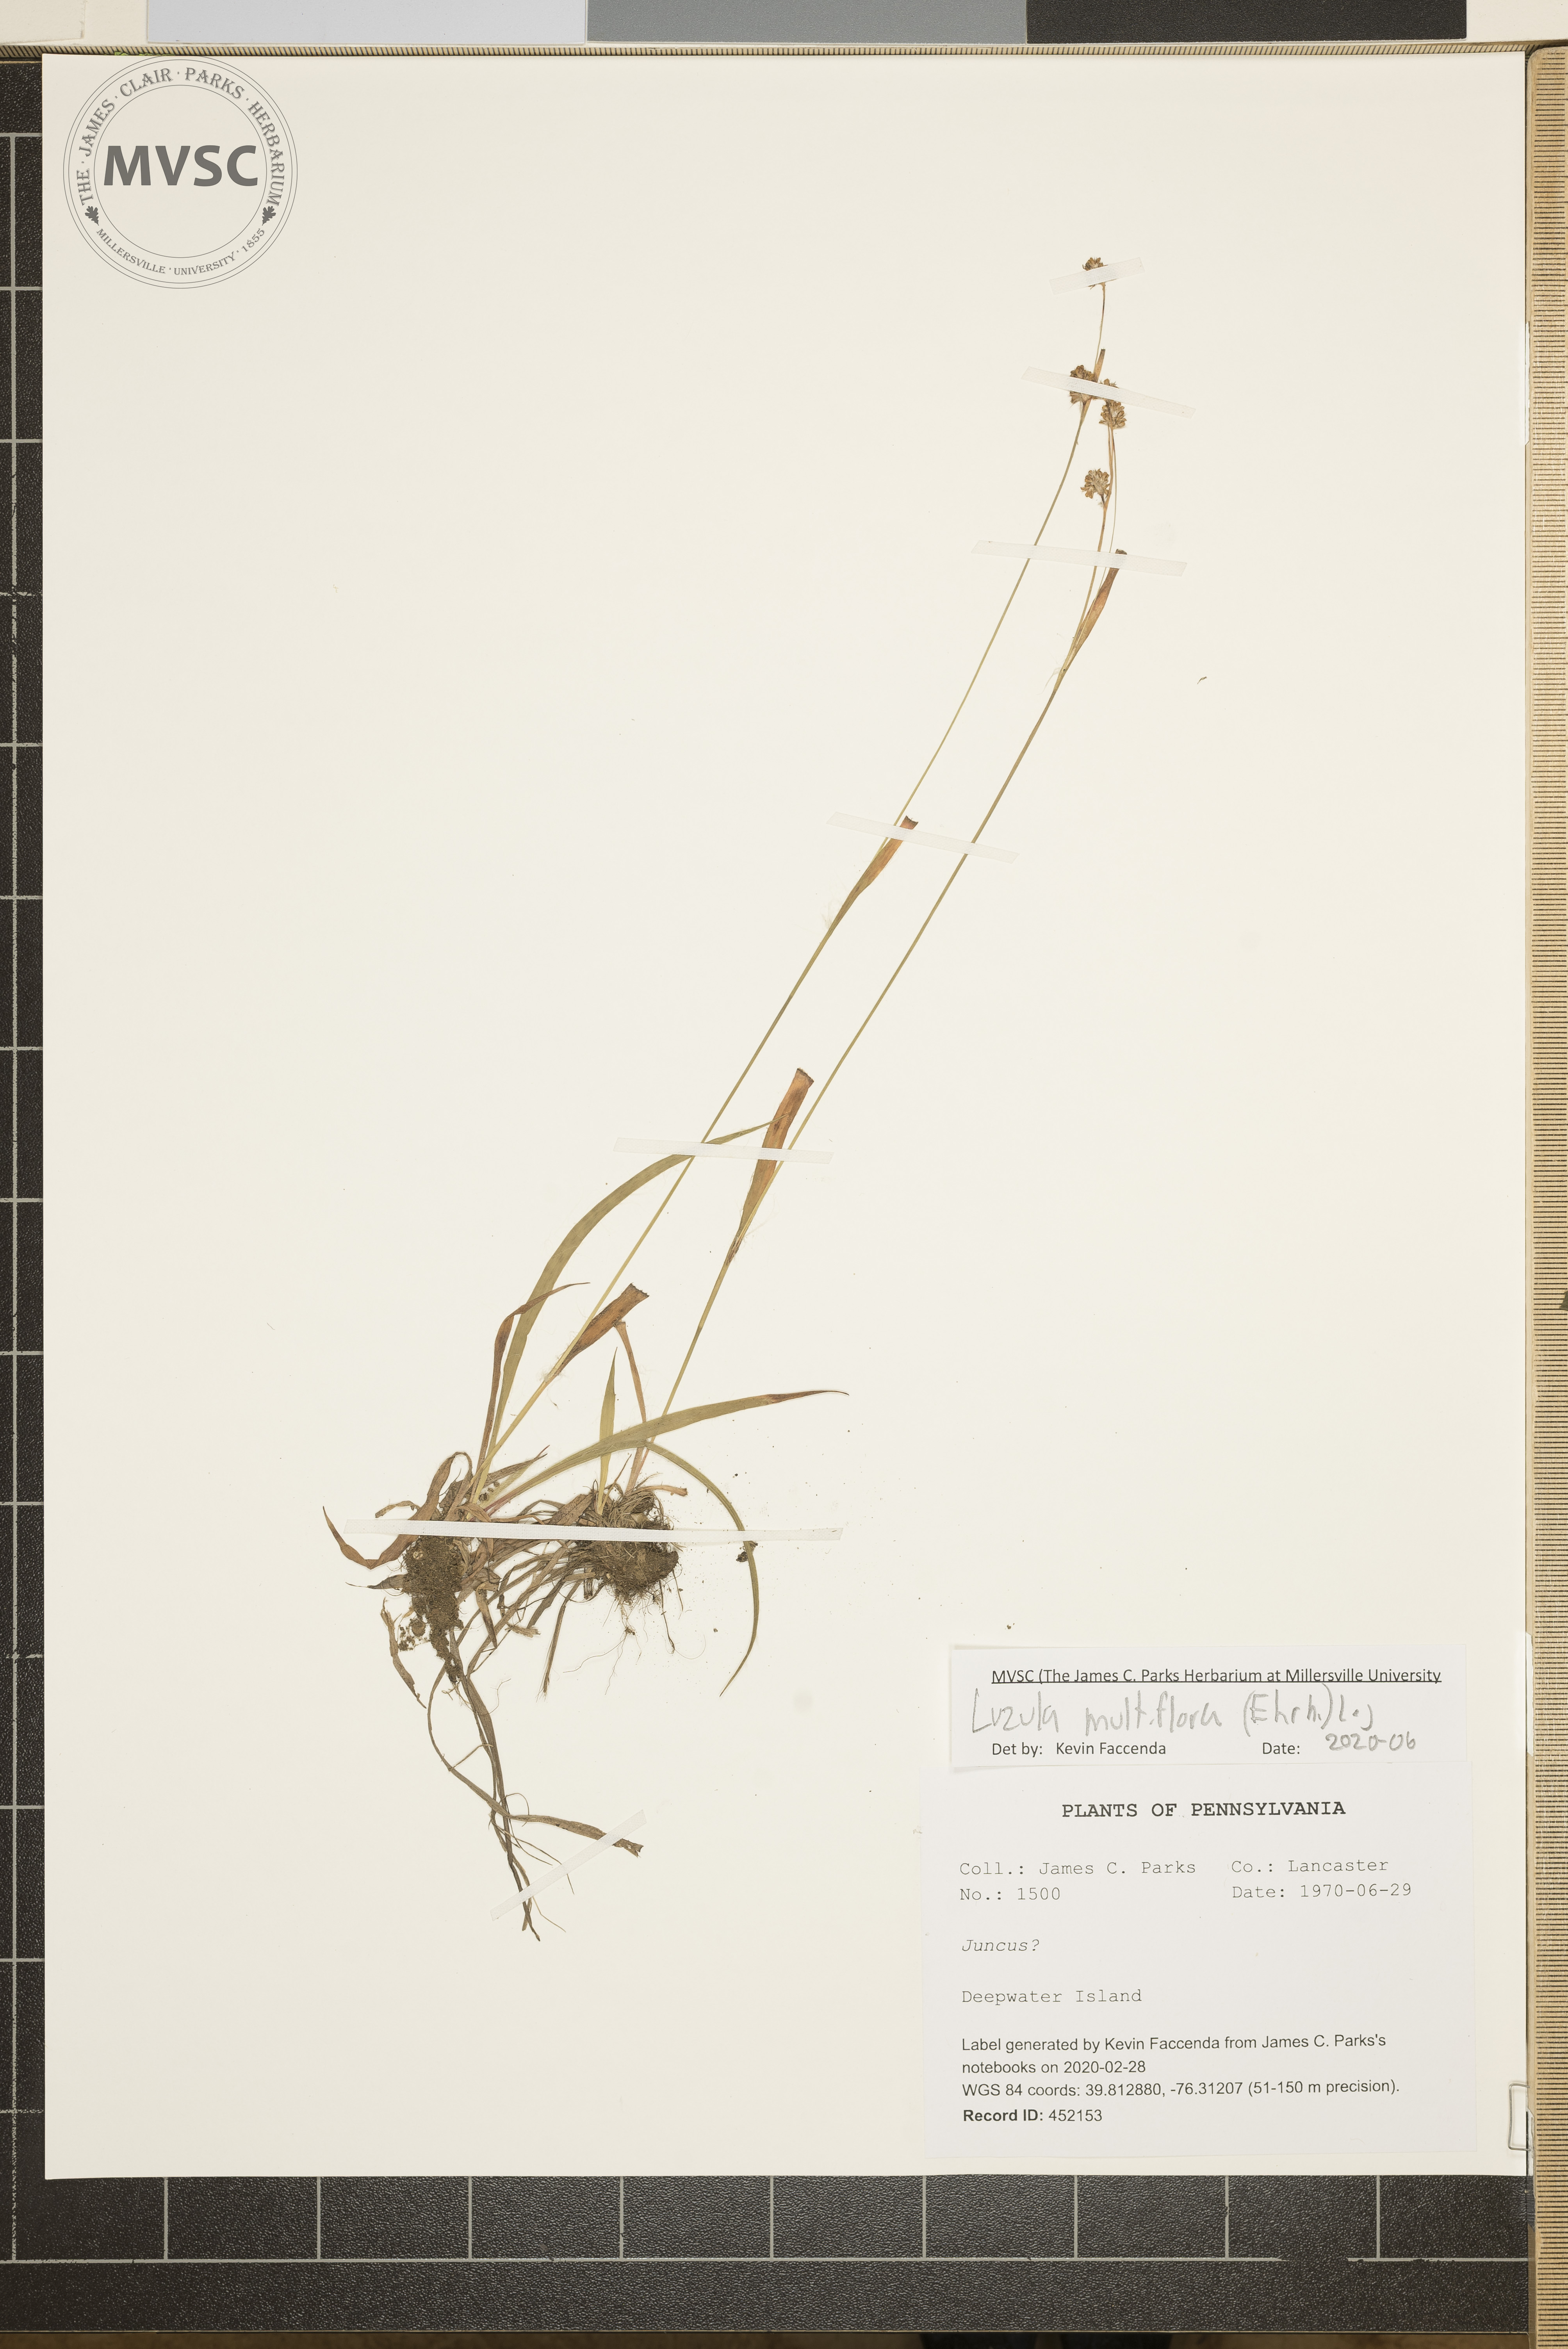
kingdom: Plantae
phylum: Tracheophyta
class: Liliopsida
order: Poales
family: Juncaceae
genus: Luzula
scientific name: Luzula multiflora
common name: Heath wood-rush
